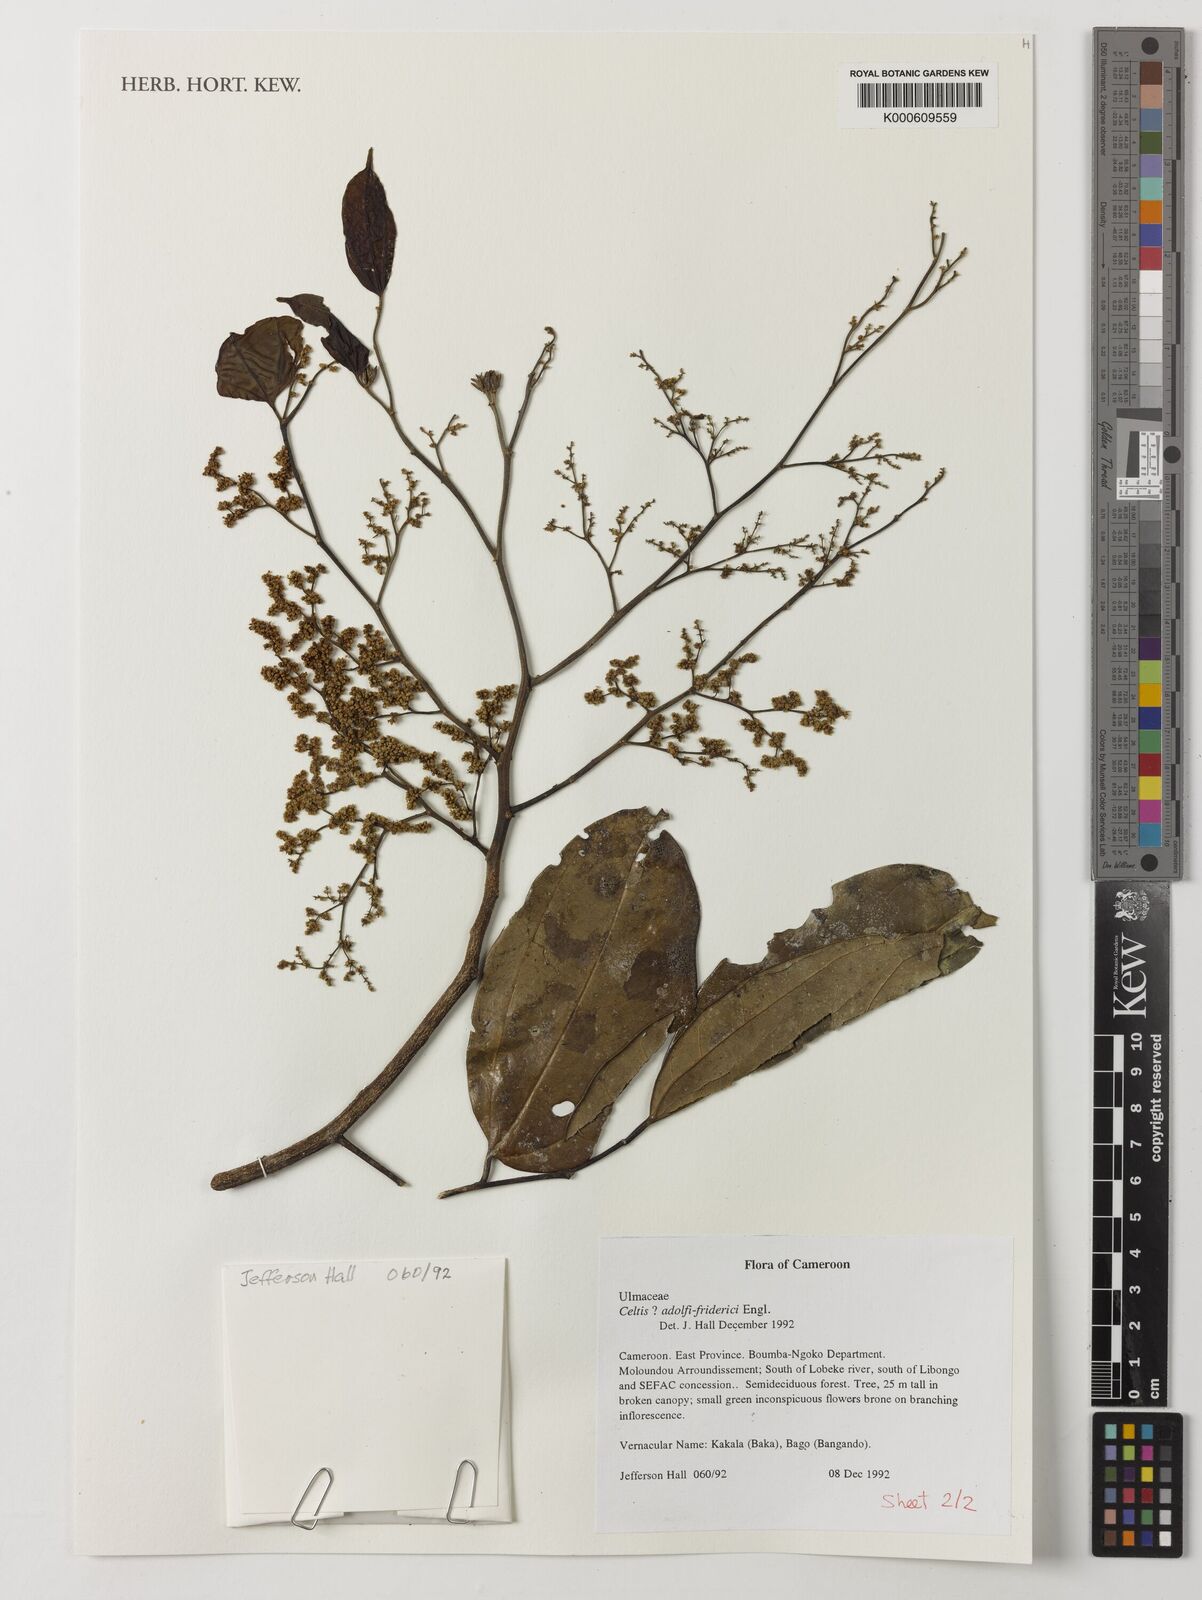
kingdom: Plantae
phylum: Tracheophyta
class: Magnoliopsida
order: Rosales
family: Cannabaceae
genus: Celtis
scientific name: Celtis adolfi-friderici
